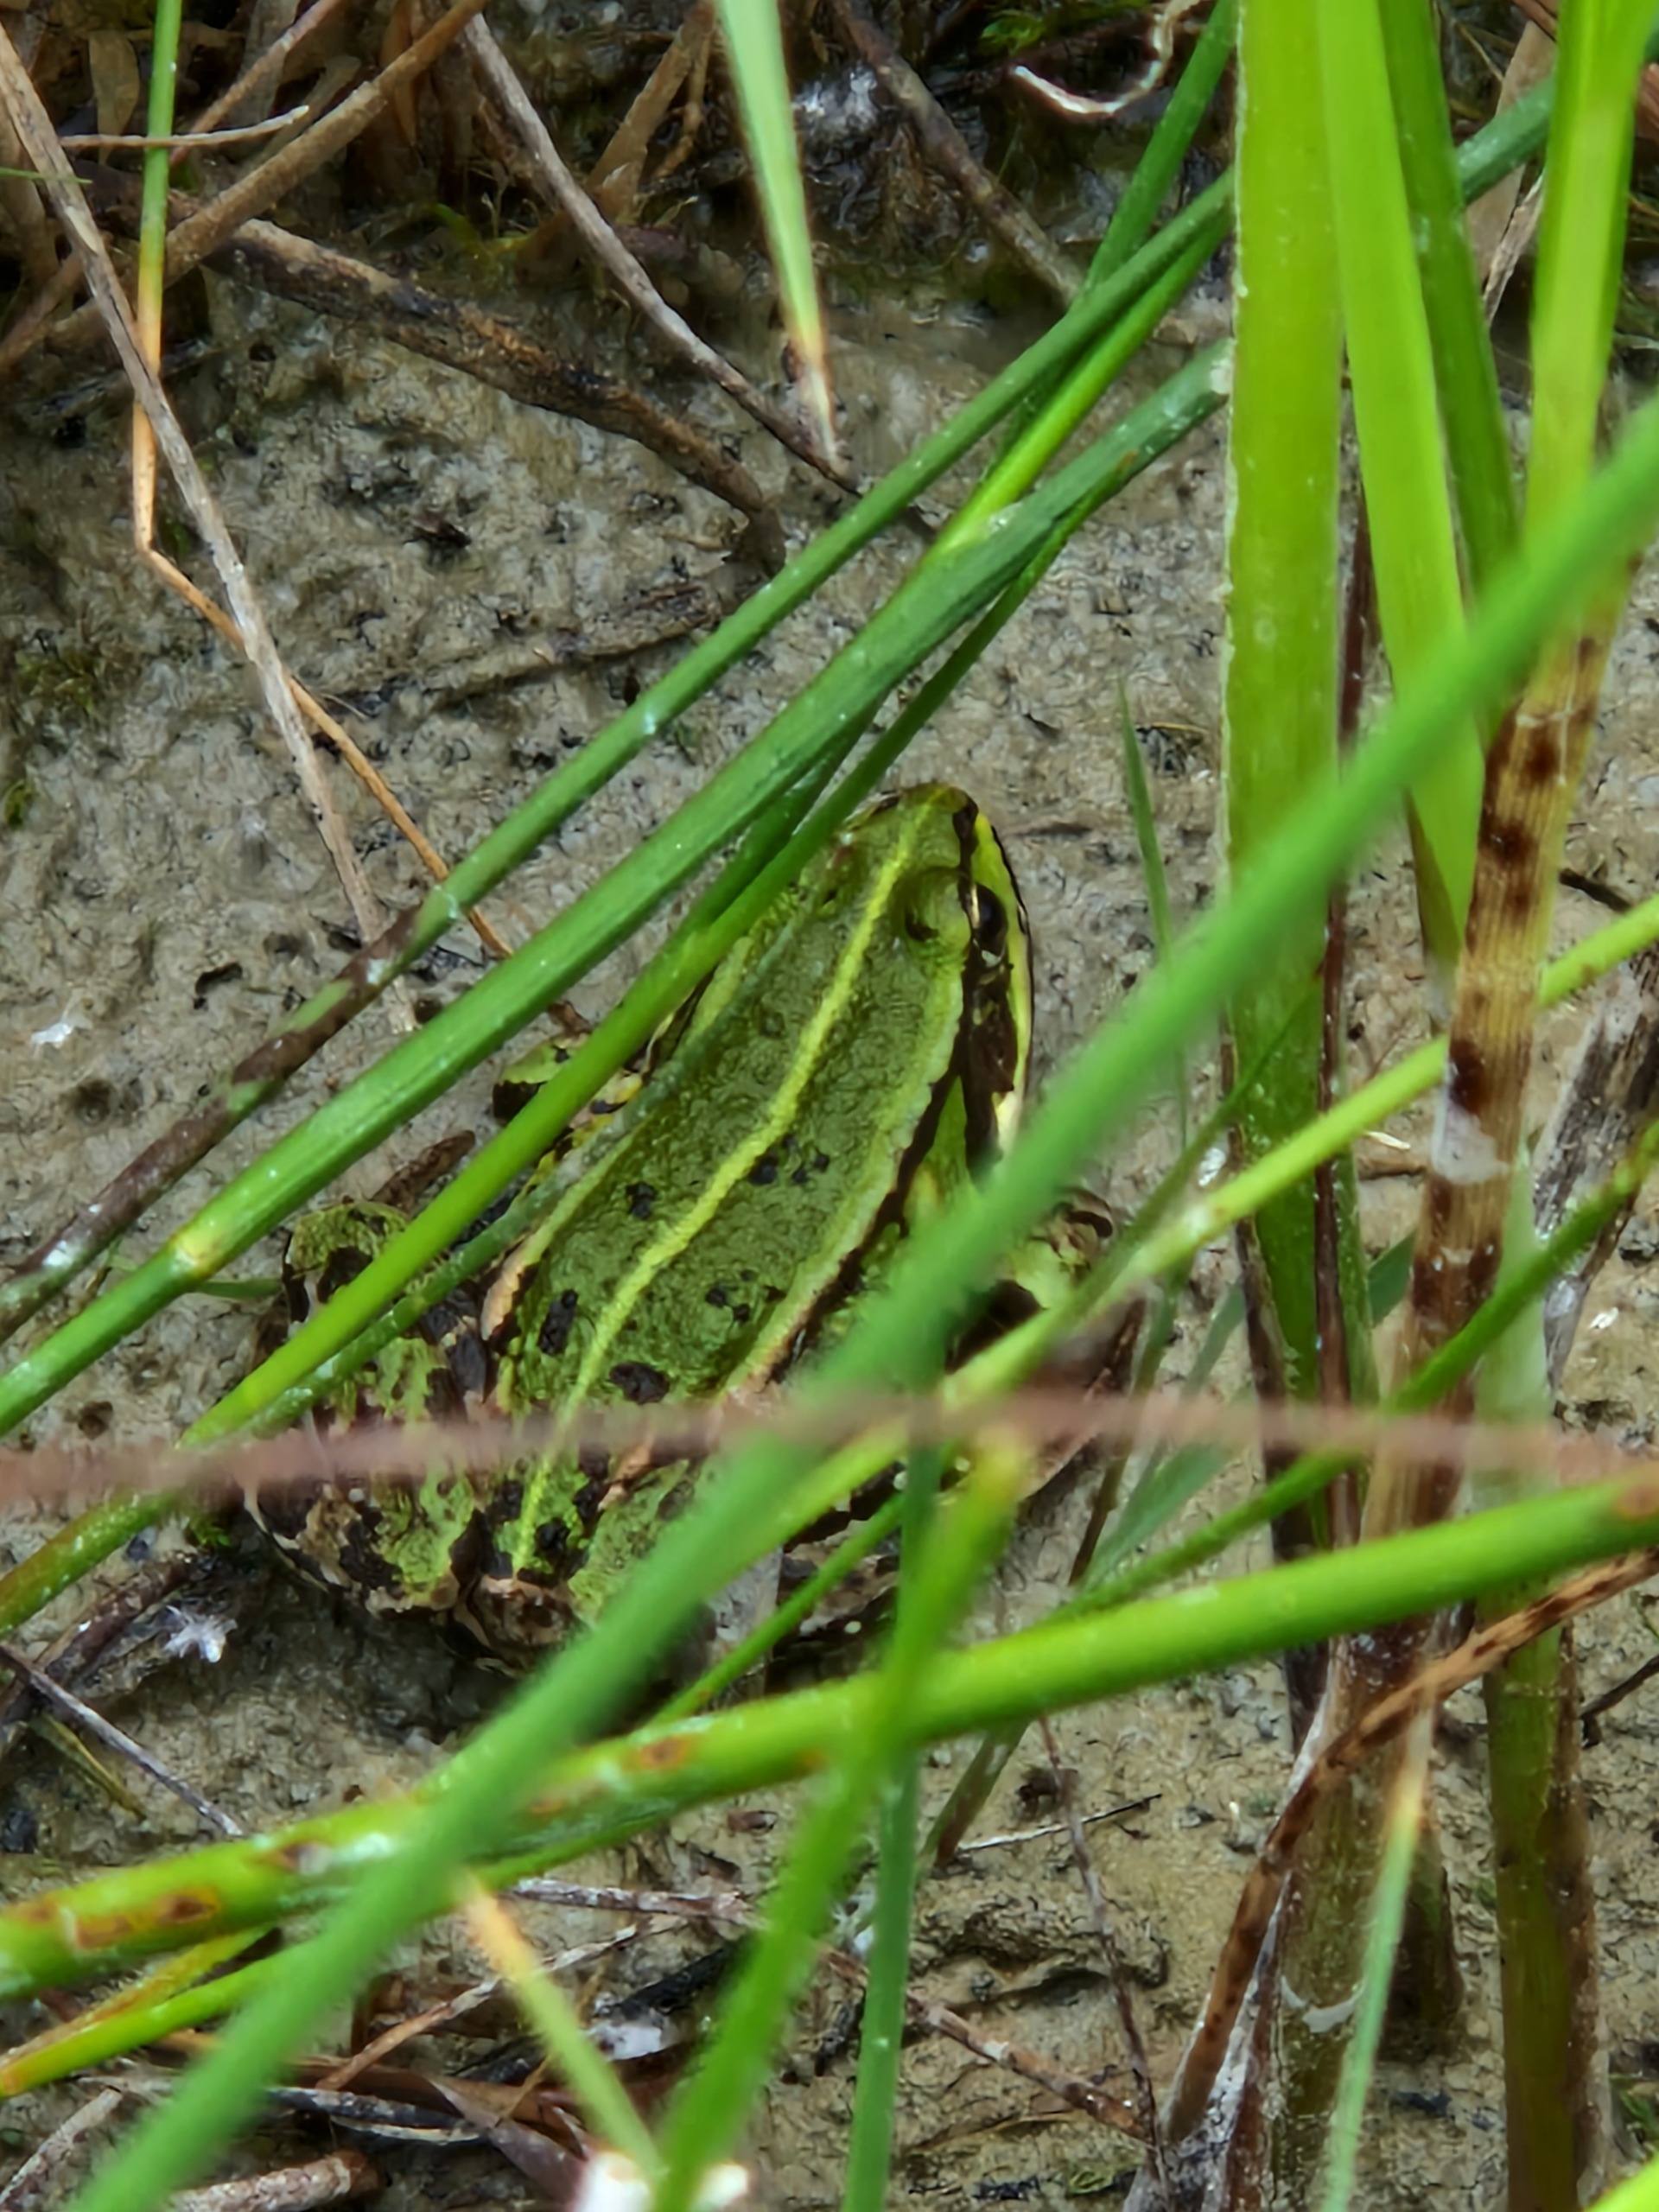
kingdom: Animalia
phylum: Chordata
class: Amphibia
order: Anura
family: Ranidae
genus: Pelophylax
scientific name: Pelophylax lessonae
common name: Grøn frø
